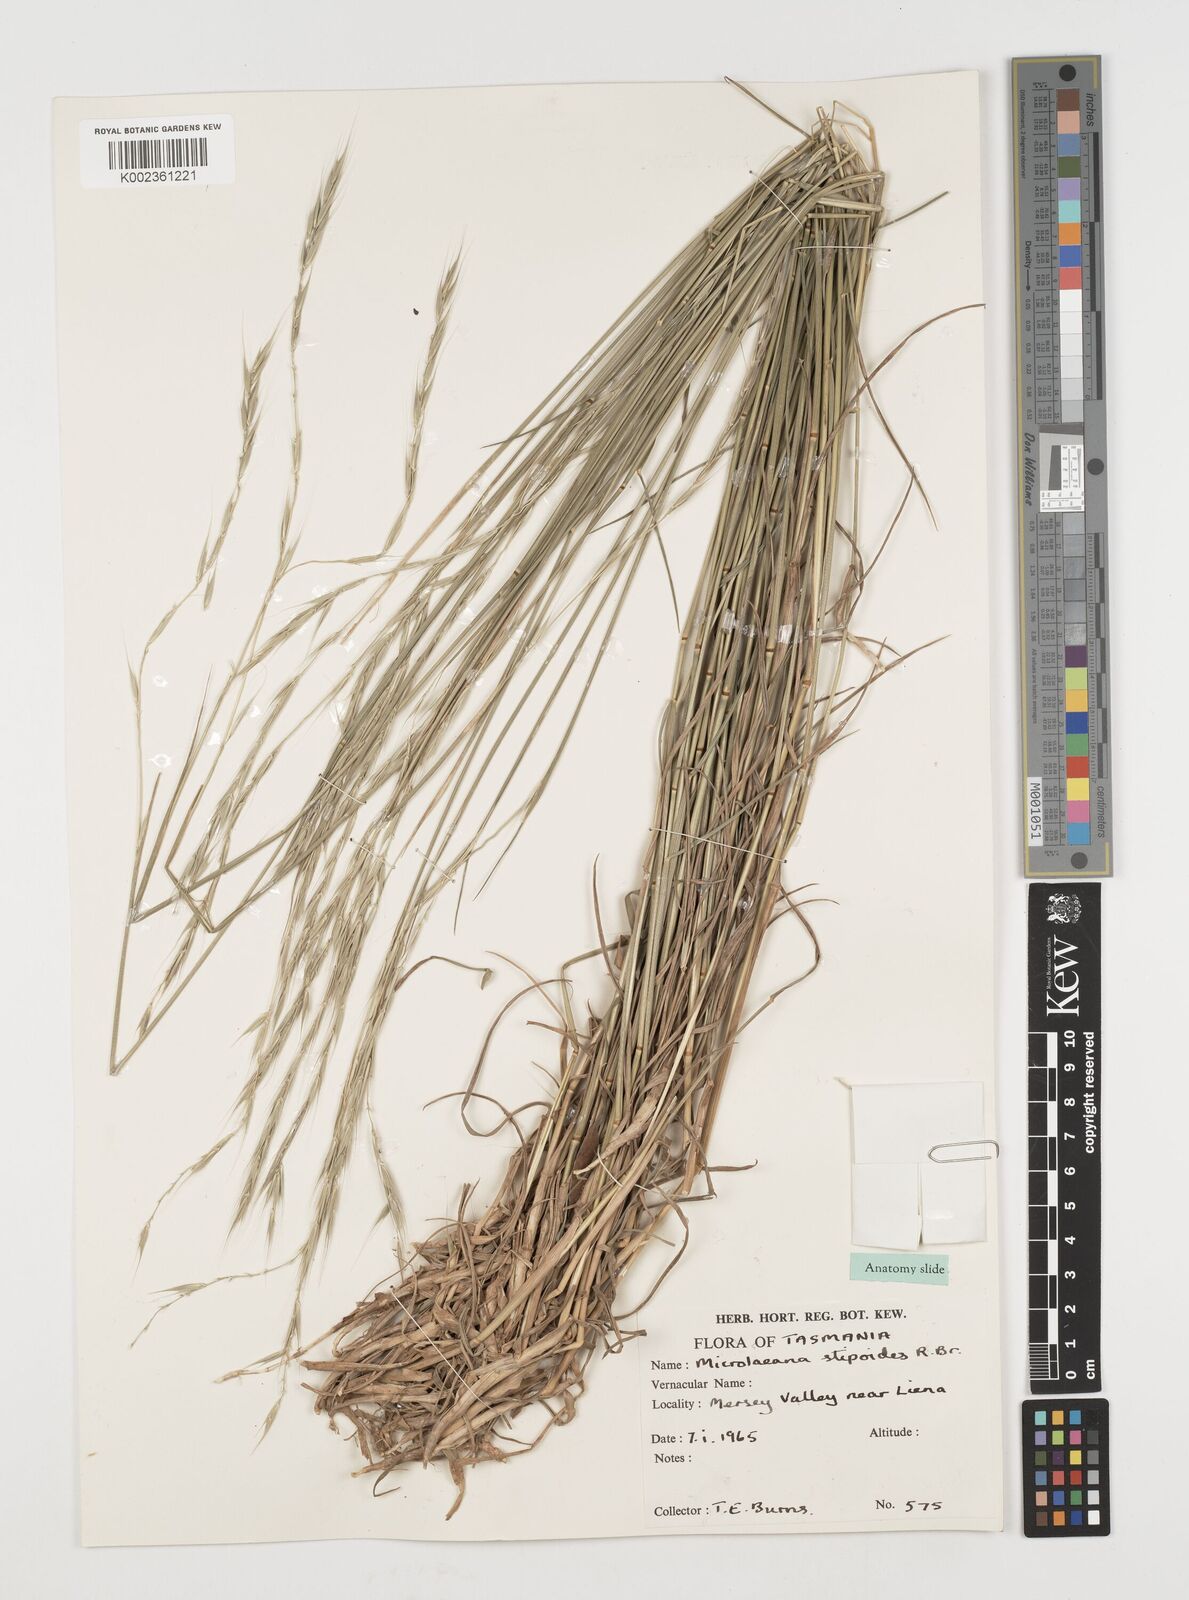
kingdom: Plantae
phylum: Tracheophyta
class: Liliopsida
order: Poales
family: Poaceae
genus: Microlaena
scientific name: Microlaena stipoides
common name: Meadow ricegrass
